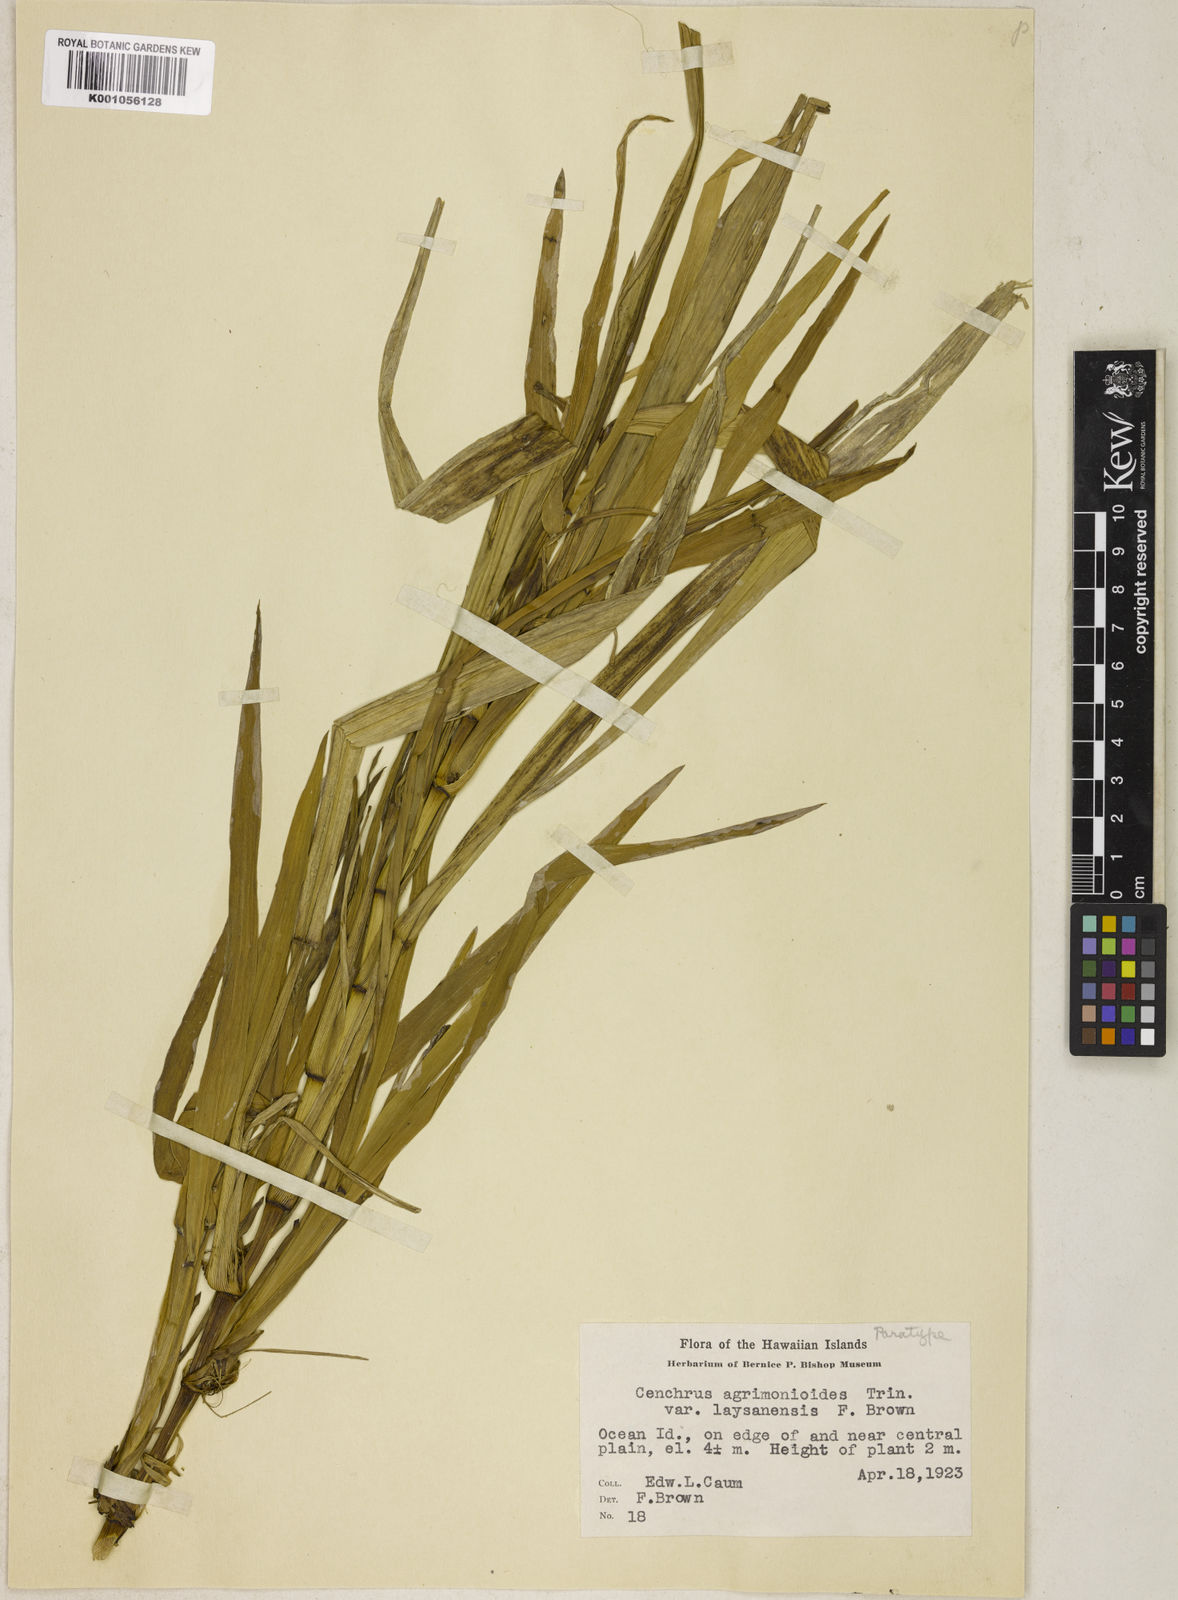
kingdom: Plantae
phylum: Tracheophyta
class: Liliopsida
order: Poales
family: Poaceae
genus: Cenchrus
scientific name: Cenchrus agrimonioides
